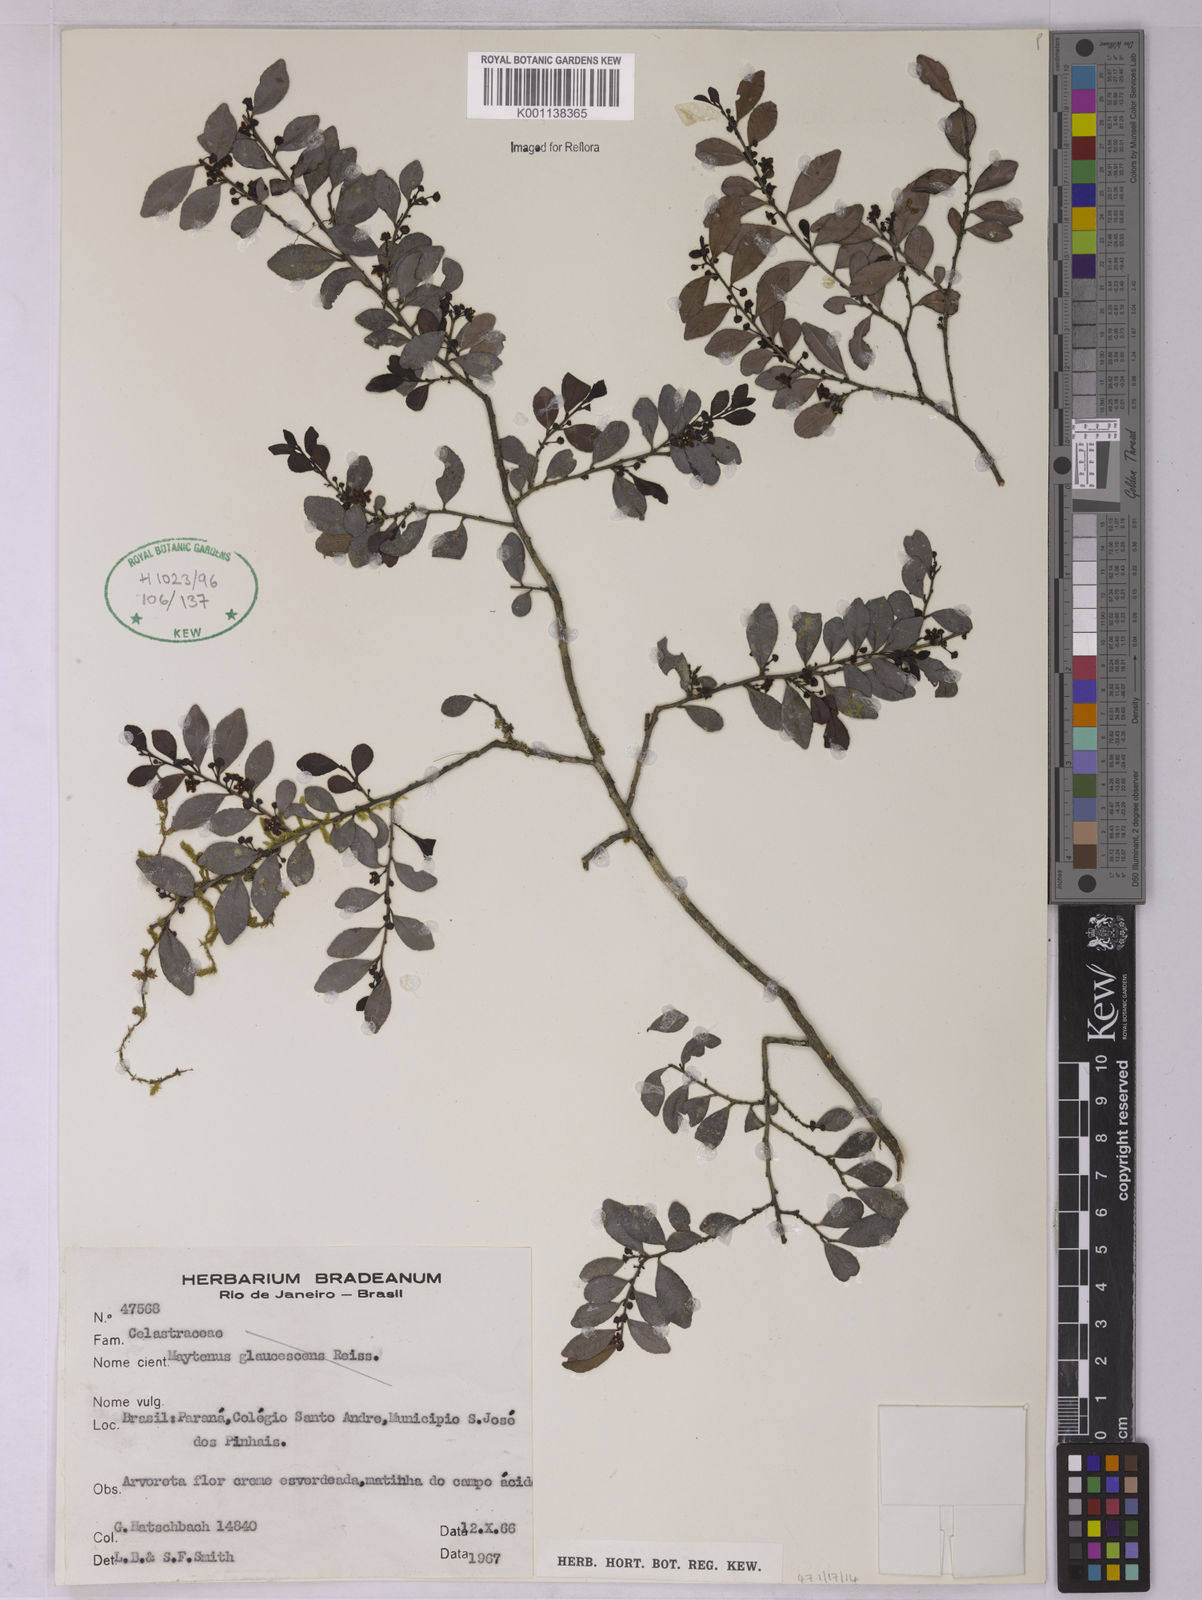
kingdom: Plantae
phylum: Tracheophyta
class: Magnoliopsida
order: Celastrales
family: Celastraceae
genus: Monteverdia
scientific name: Monteverdia glaucescens
